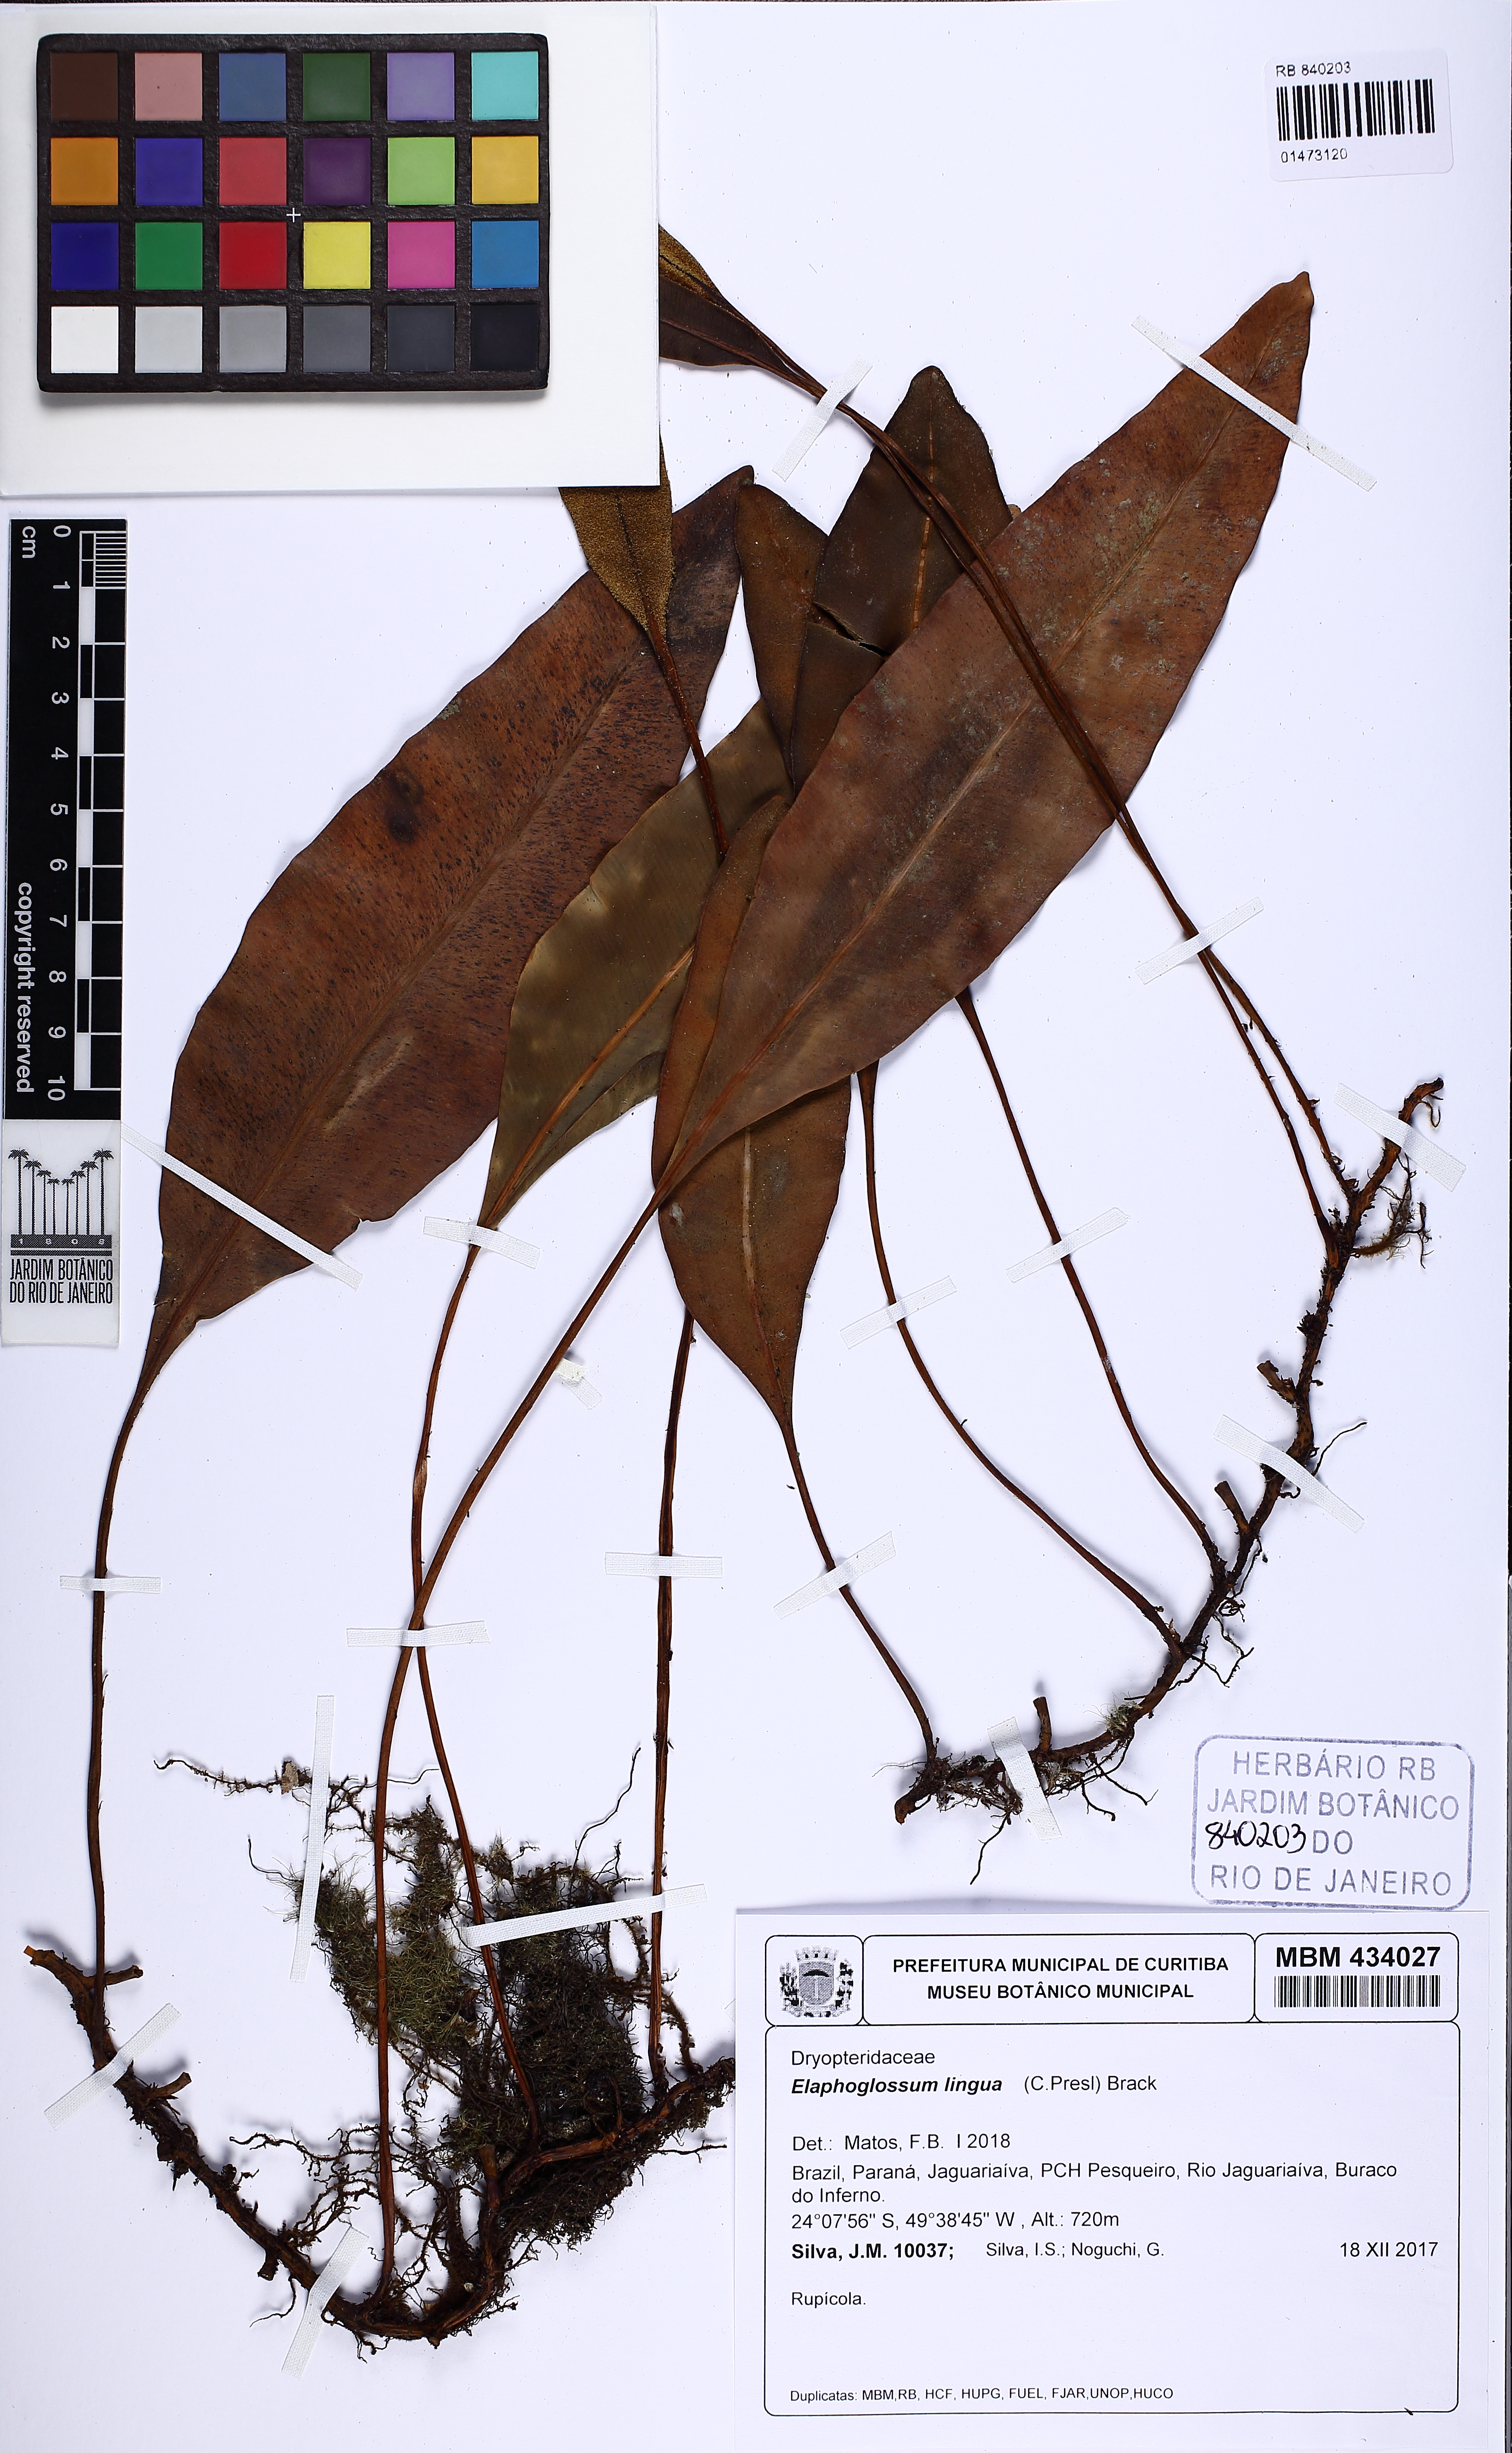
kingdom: Plantae
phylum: Tracheophyta
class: Polypodiopsida
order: Polypodiales
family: Dryopteridaceae
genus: Elaphoglossum
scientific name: Elaphoglossum lingua
